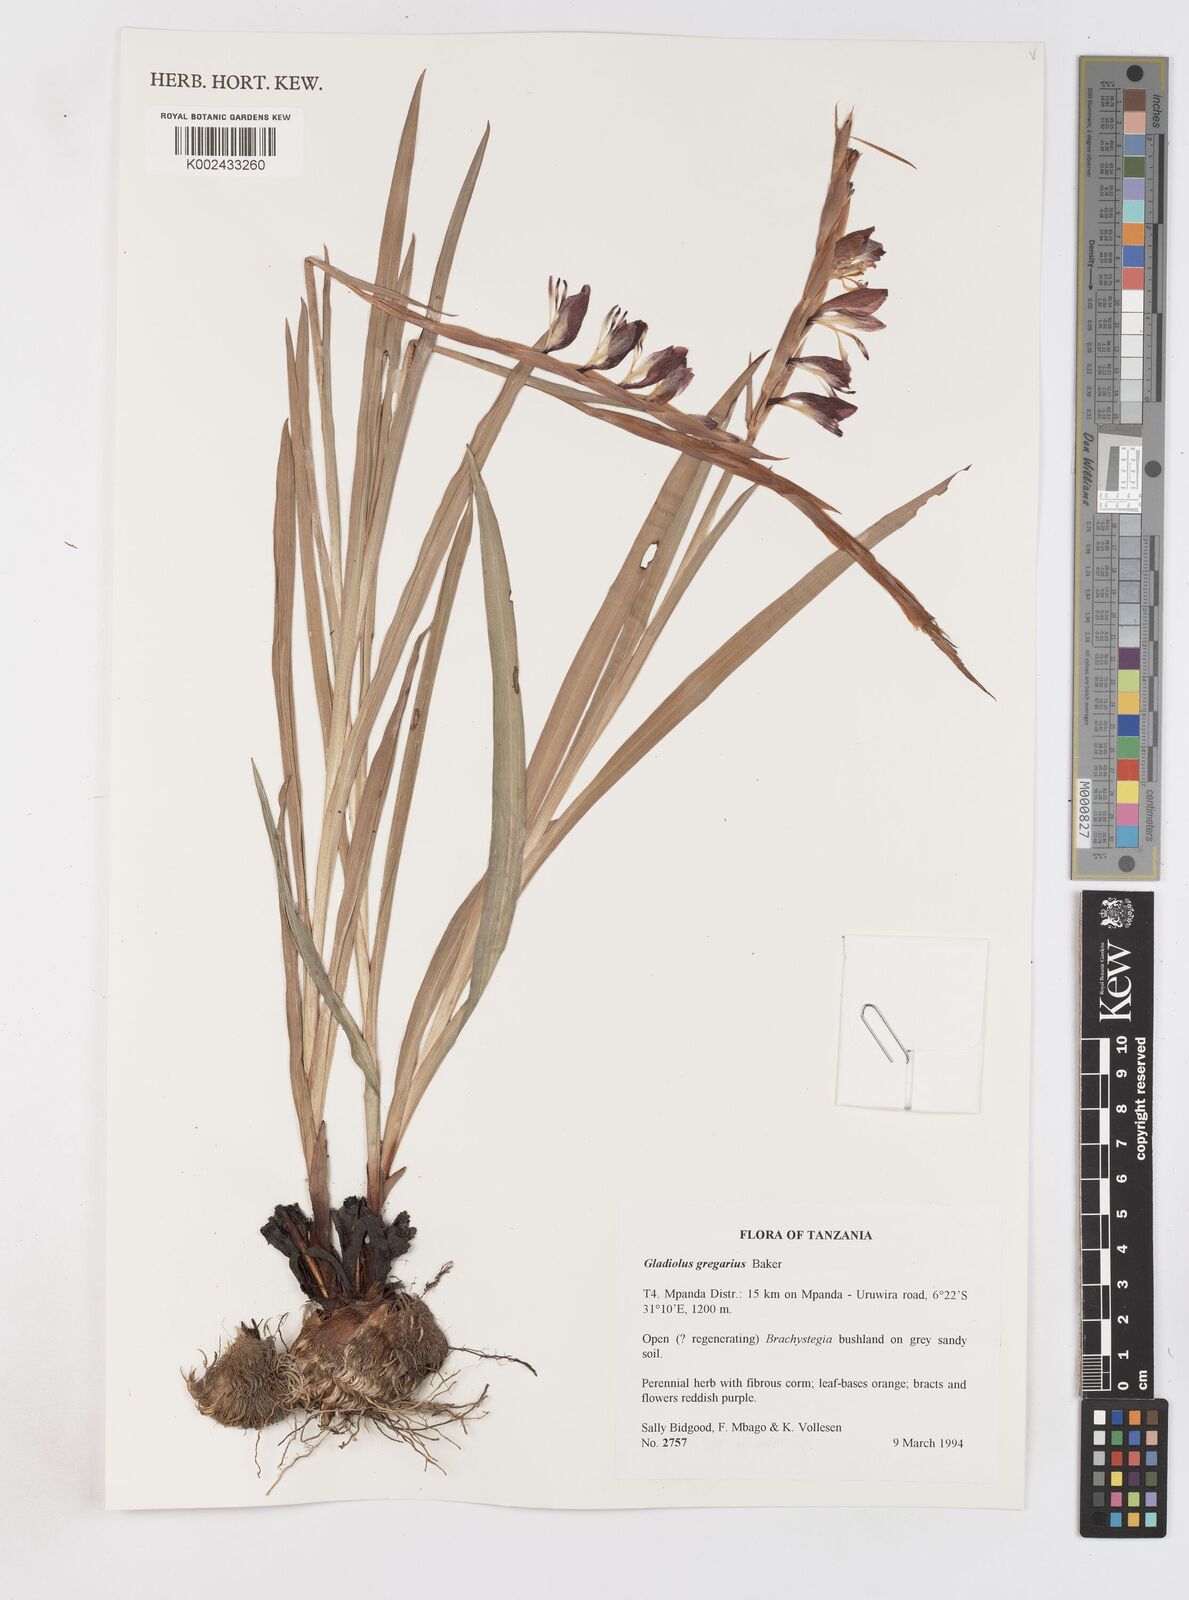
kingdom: Plantae
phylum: Tracheophyta
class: Liliopsida
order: Asparagales
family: Iridaceae
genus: Gladiolus
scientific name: Gladiolus gregarius
